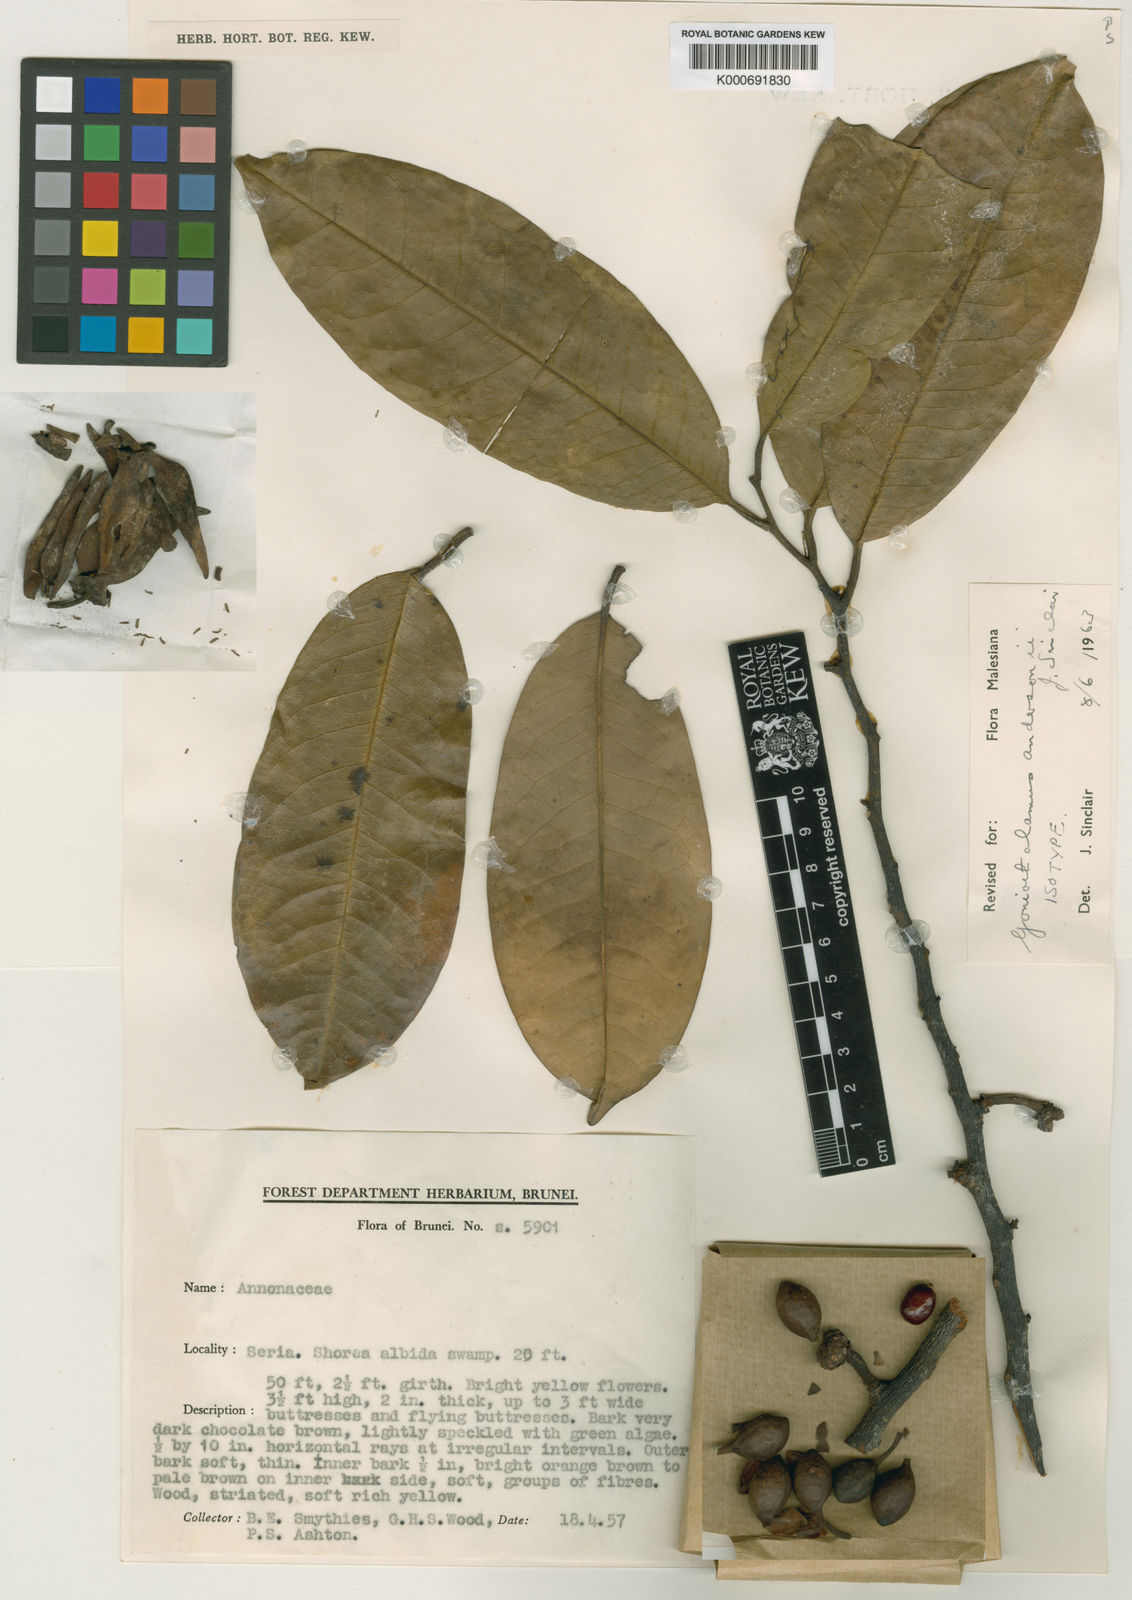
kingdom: Plantae
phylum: Tracheophyta
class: Magnoliopsida
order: Magnoliales
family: Annonaceae
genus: Goniothalamus
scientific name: Goniothalamus andersonii
